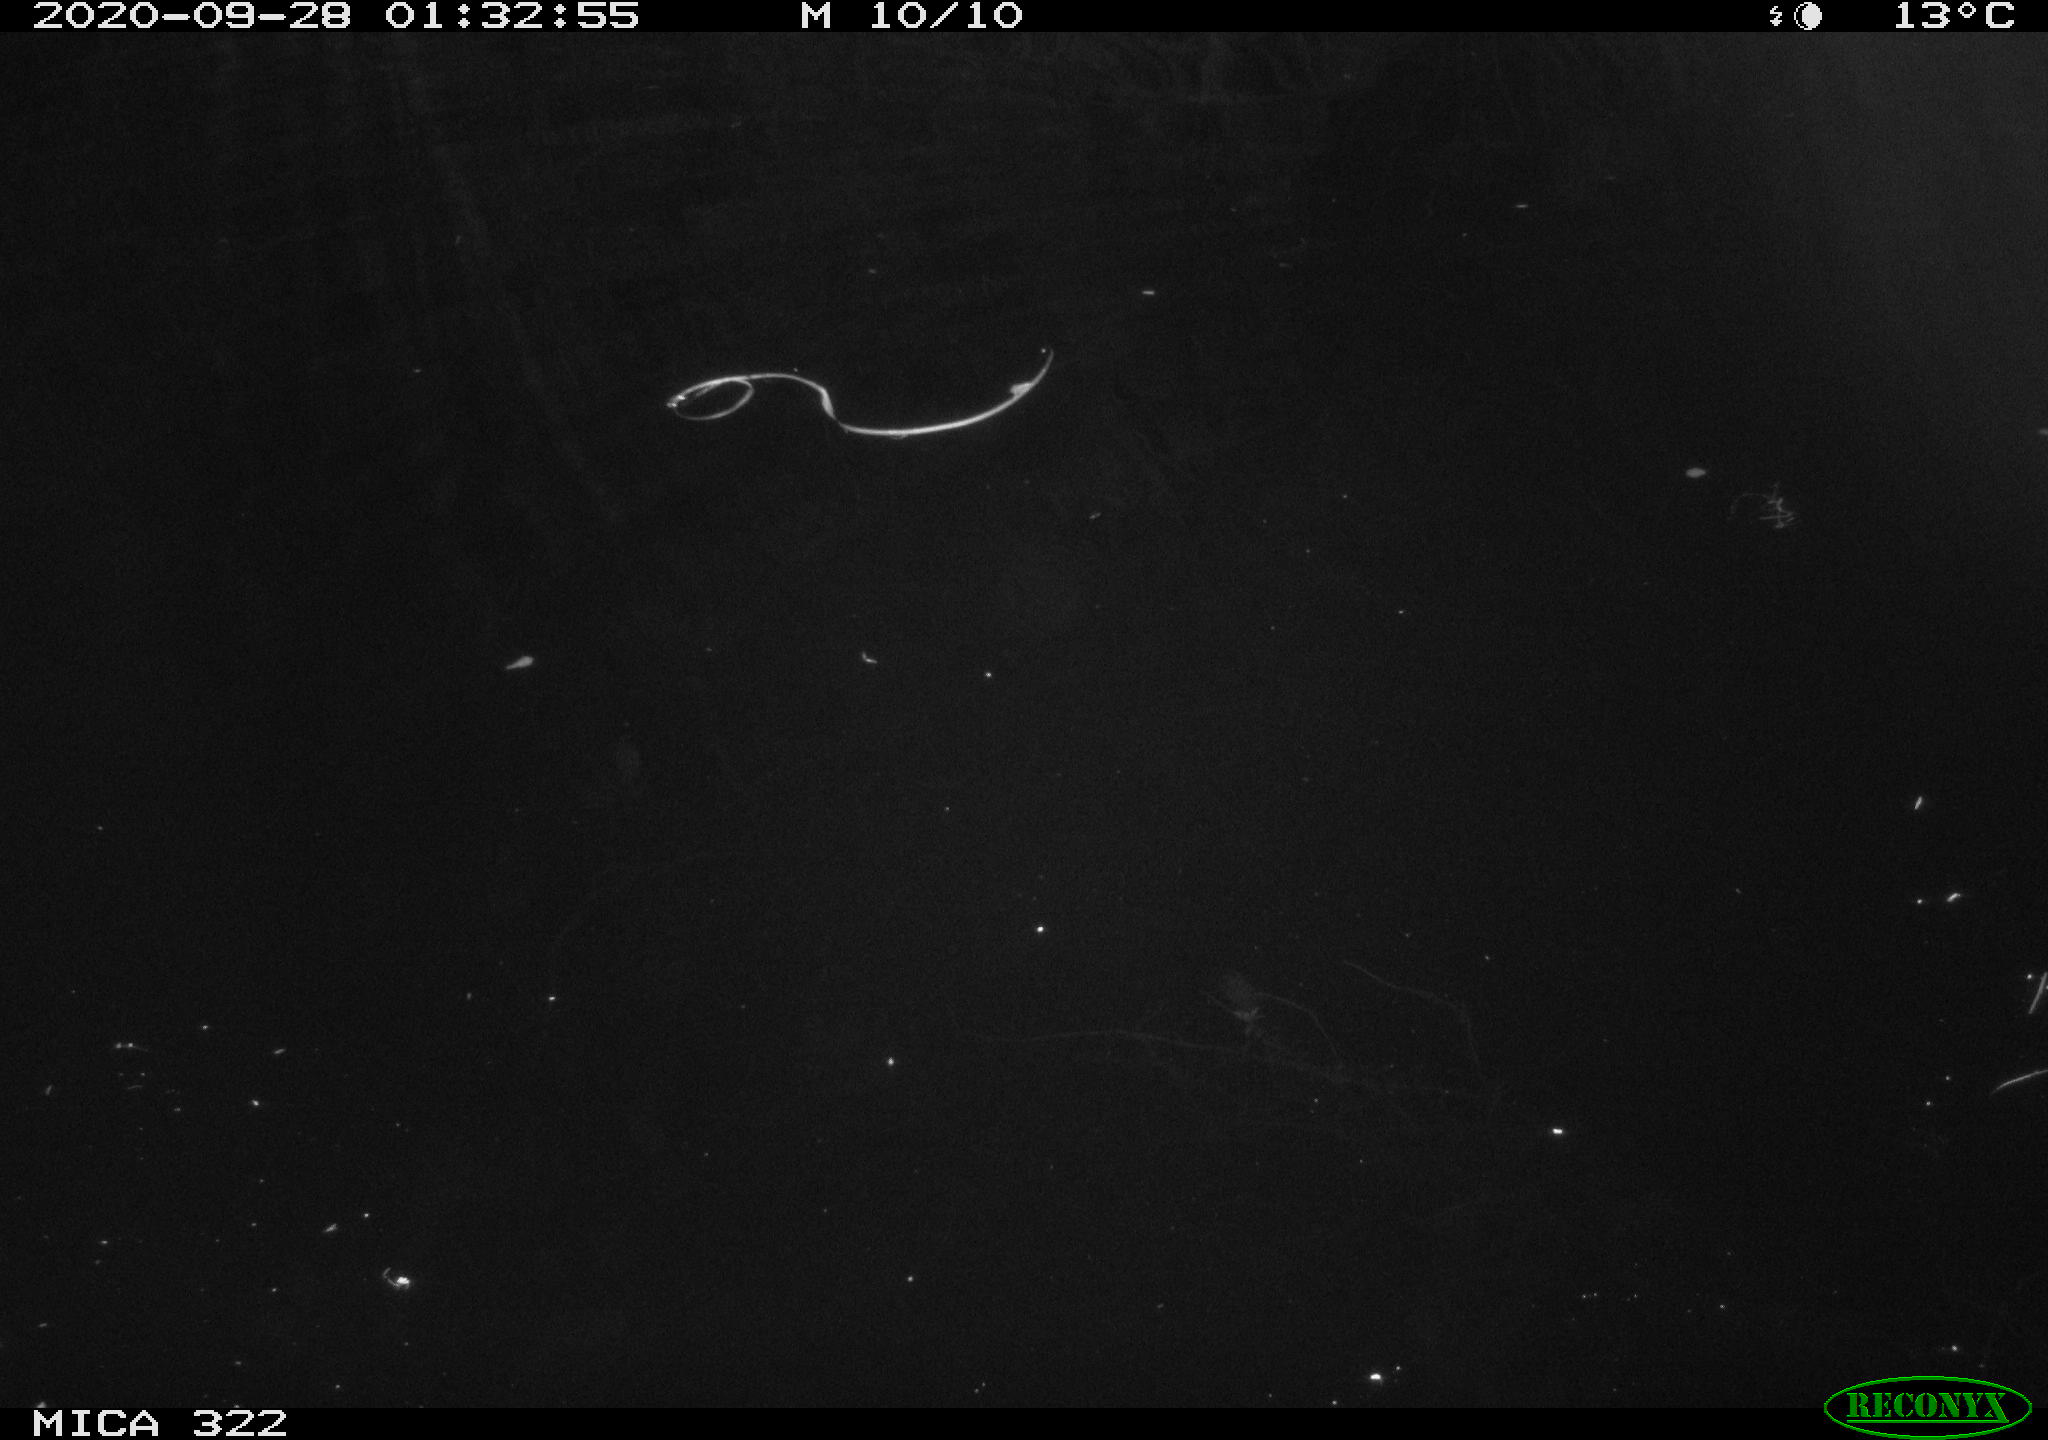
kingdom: Animalia
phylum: Chordata
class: Mammalia
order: Rodentia
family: Muridae
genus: Rattus
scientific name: Rattus norvegicus
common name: Brown rat
